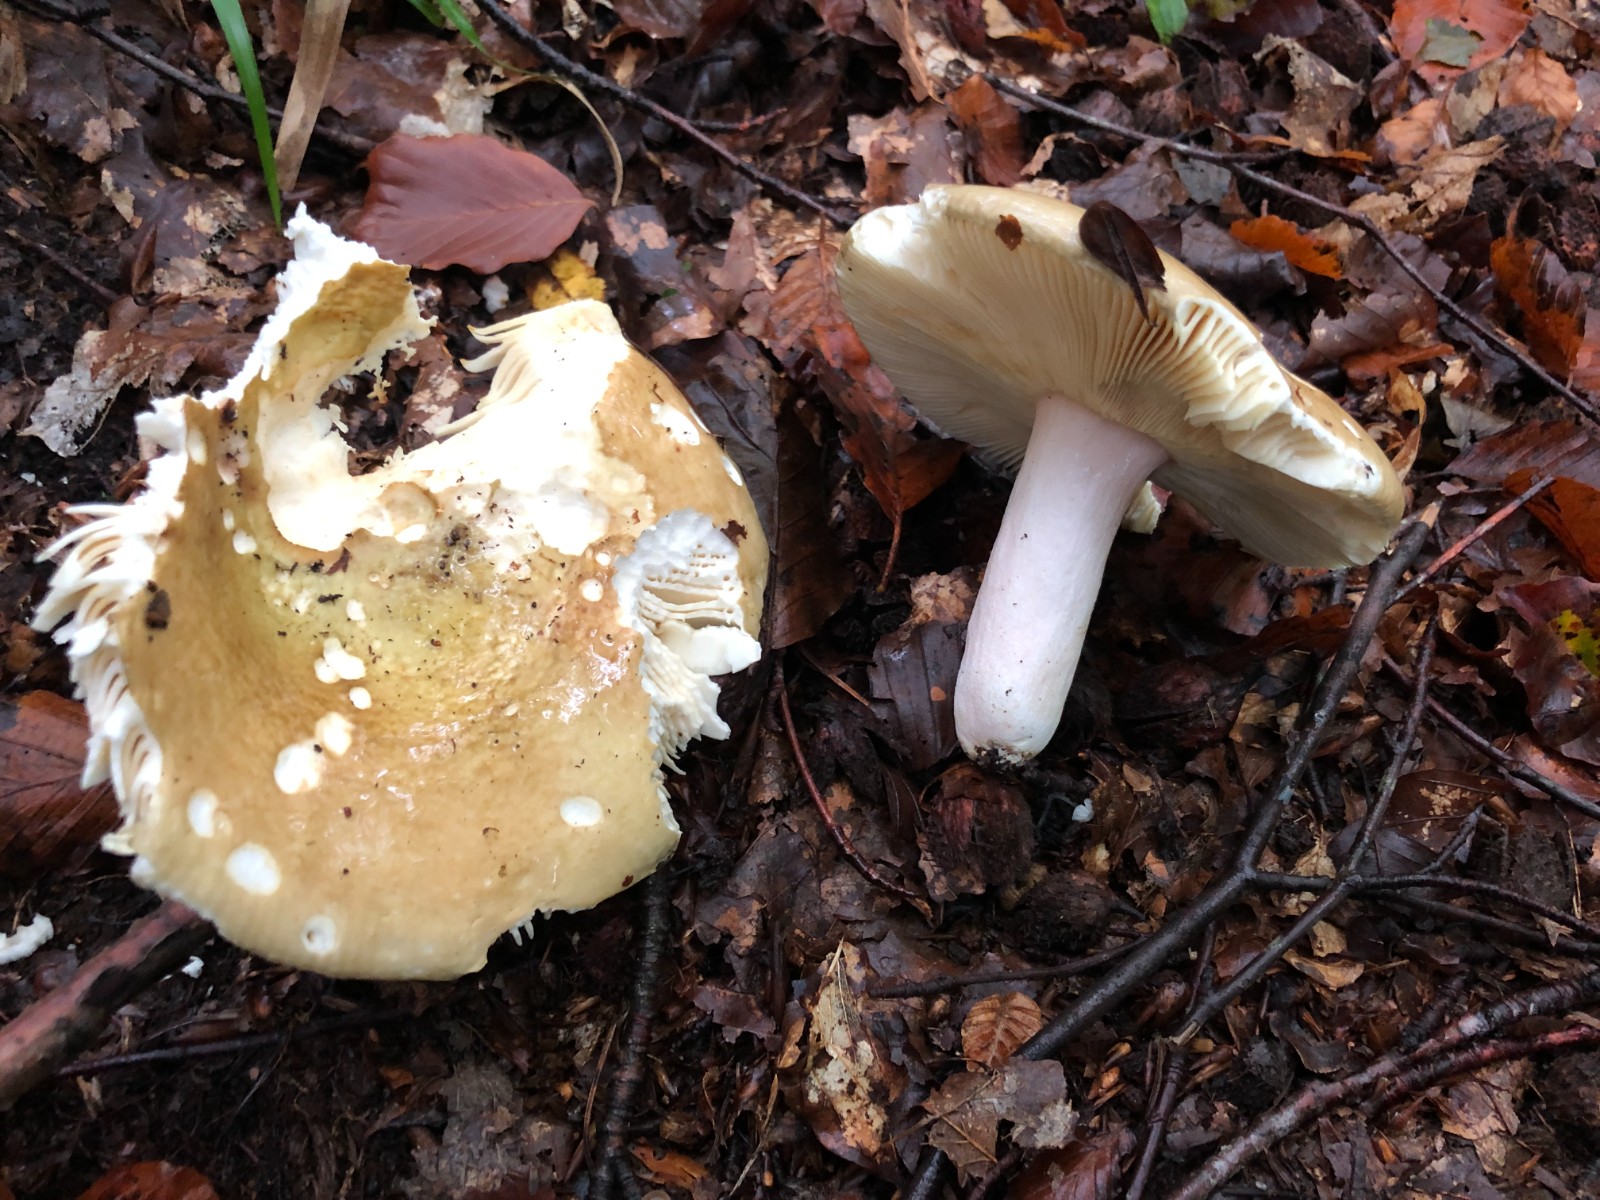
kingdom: Fungi
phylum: Basidiomycota
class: Agaricomycetes
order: Russulales
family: Russulaceae
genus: Russula
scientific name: Russula olivacea
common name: stor skørhat
